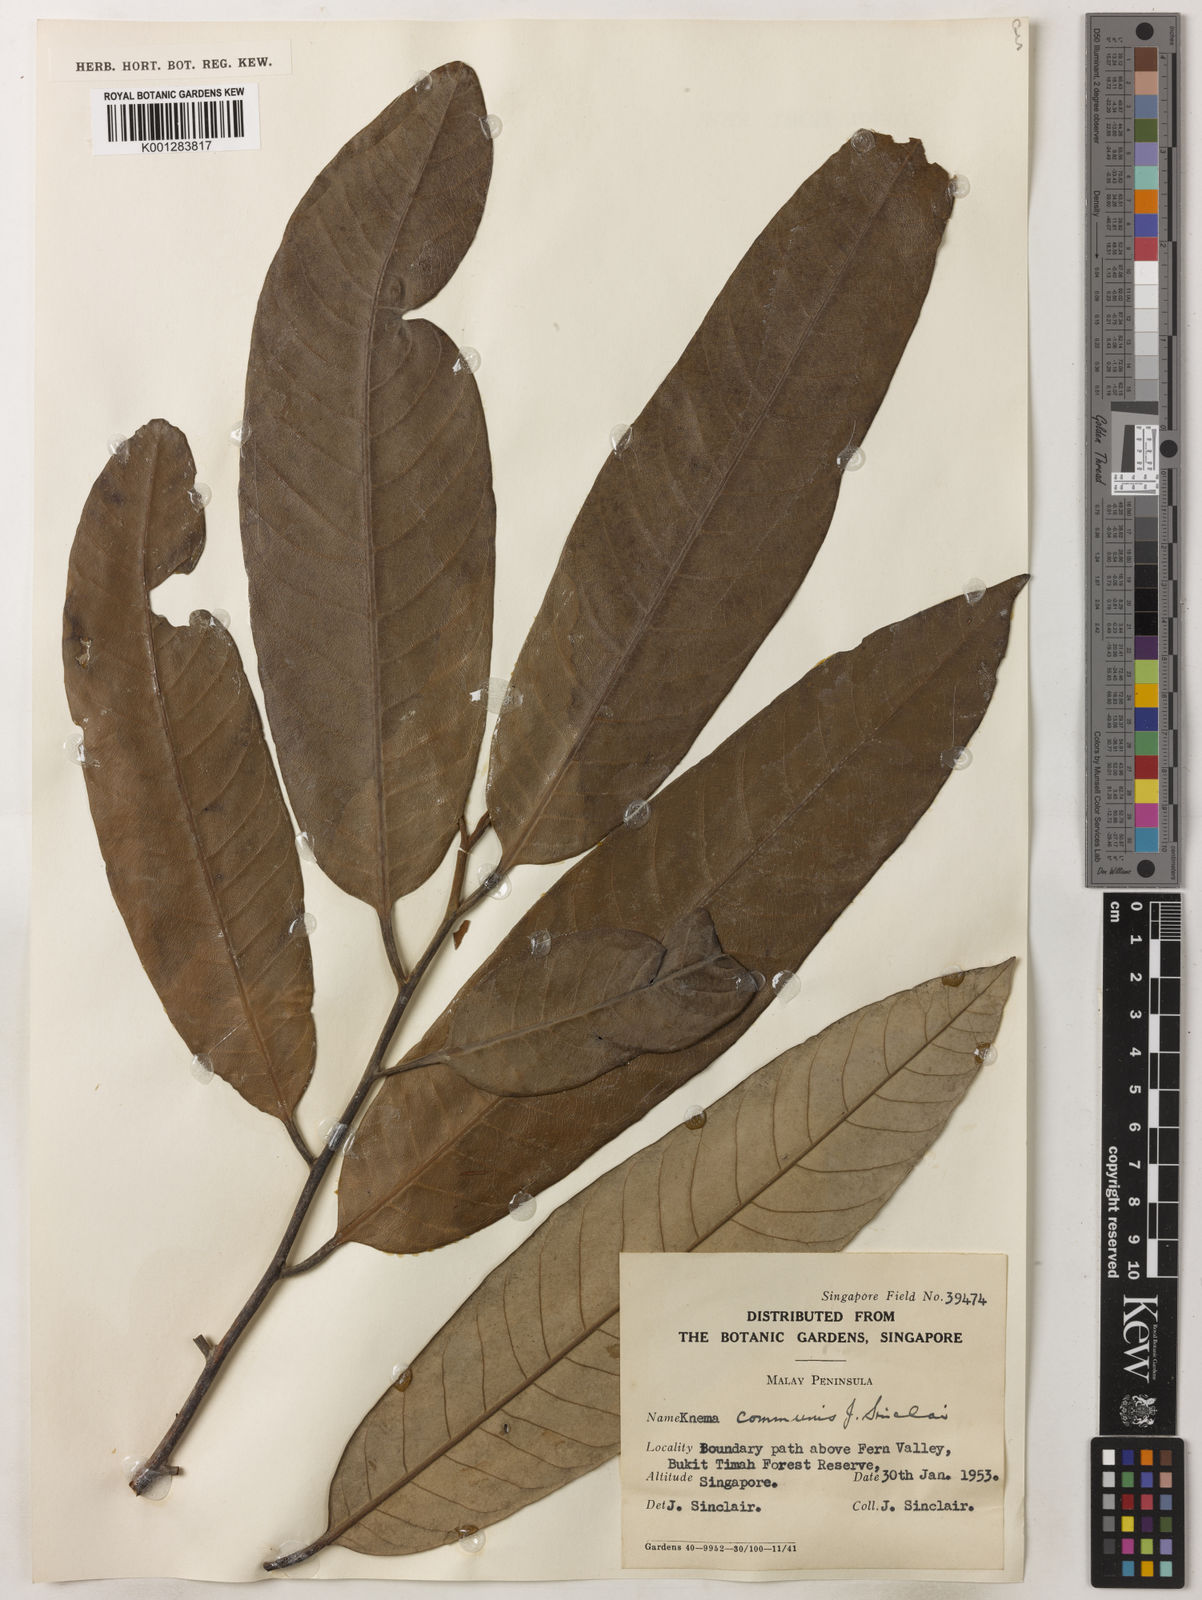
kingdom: Plantae
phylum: Tracheophyta
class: Magnoliopsida
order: Magnoliales
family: Myristicaceae
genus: Knema
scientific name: Knema communis
